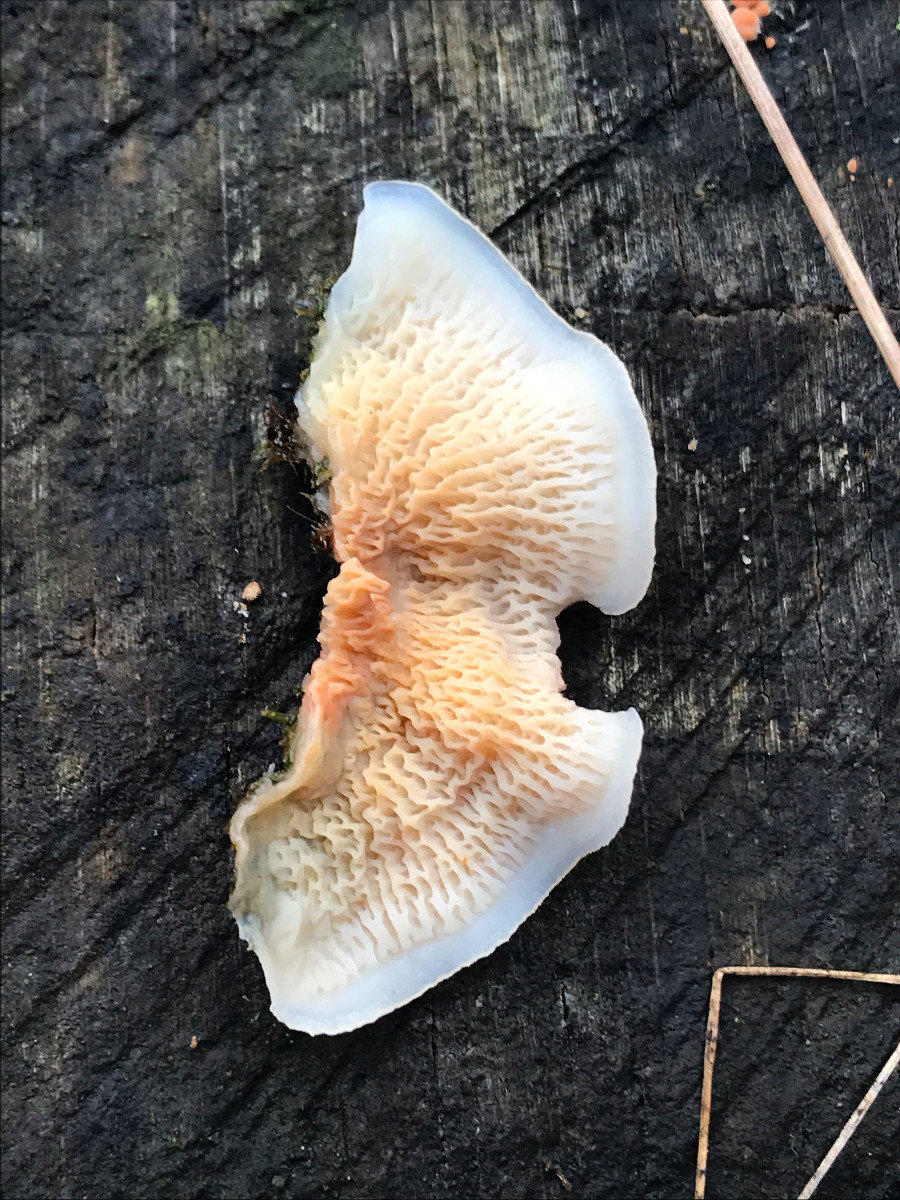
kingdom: Fungi
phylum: Basidiomycota
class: Agaricomycetes
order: Polyporales
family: Meruliaceae
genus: Phlebia
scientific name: Phlebia tremellosa
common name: bævrende åresvamp
